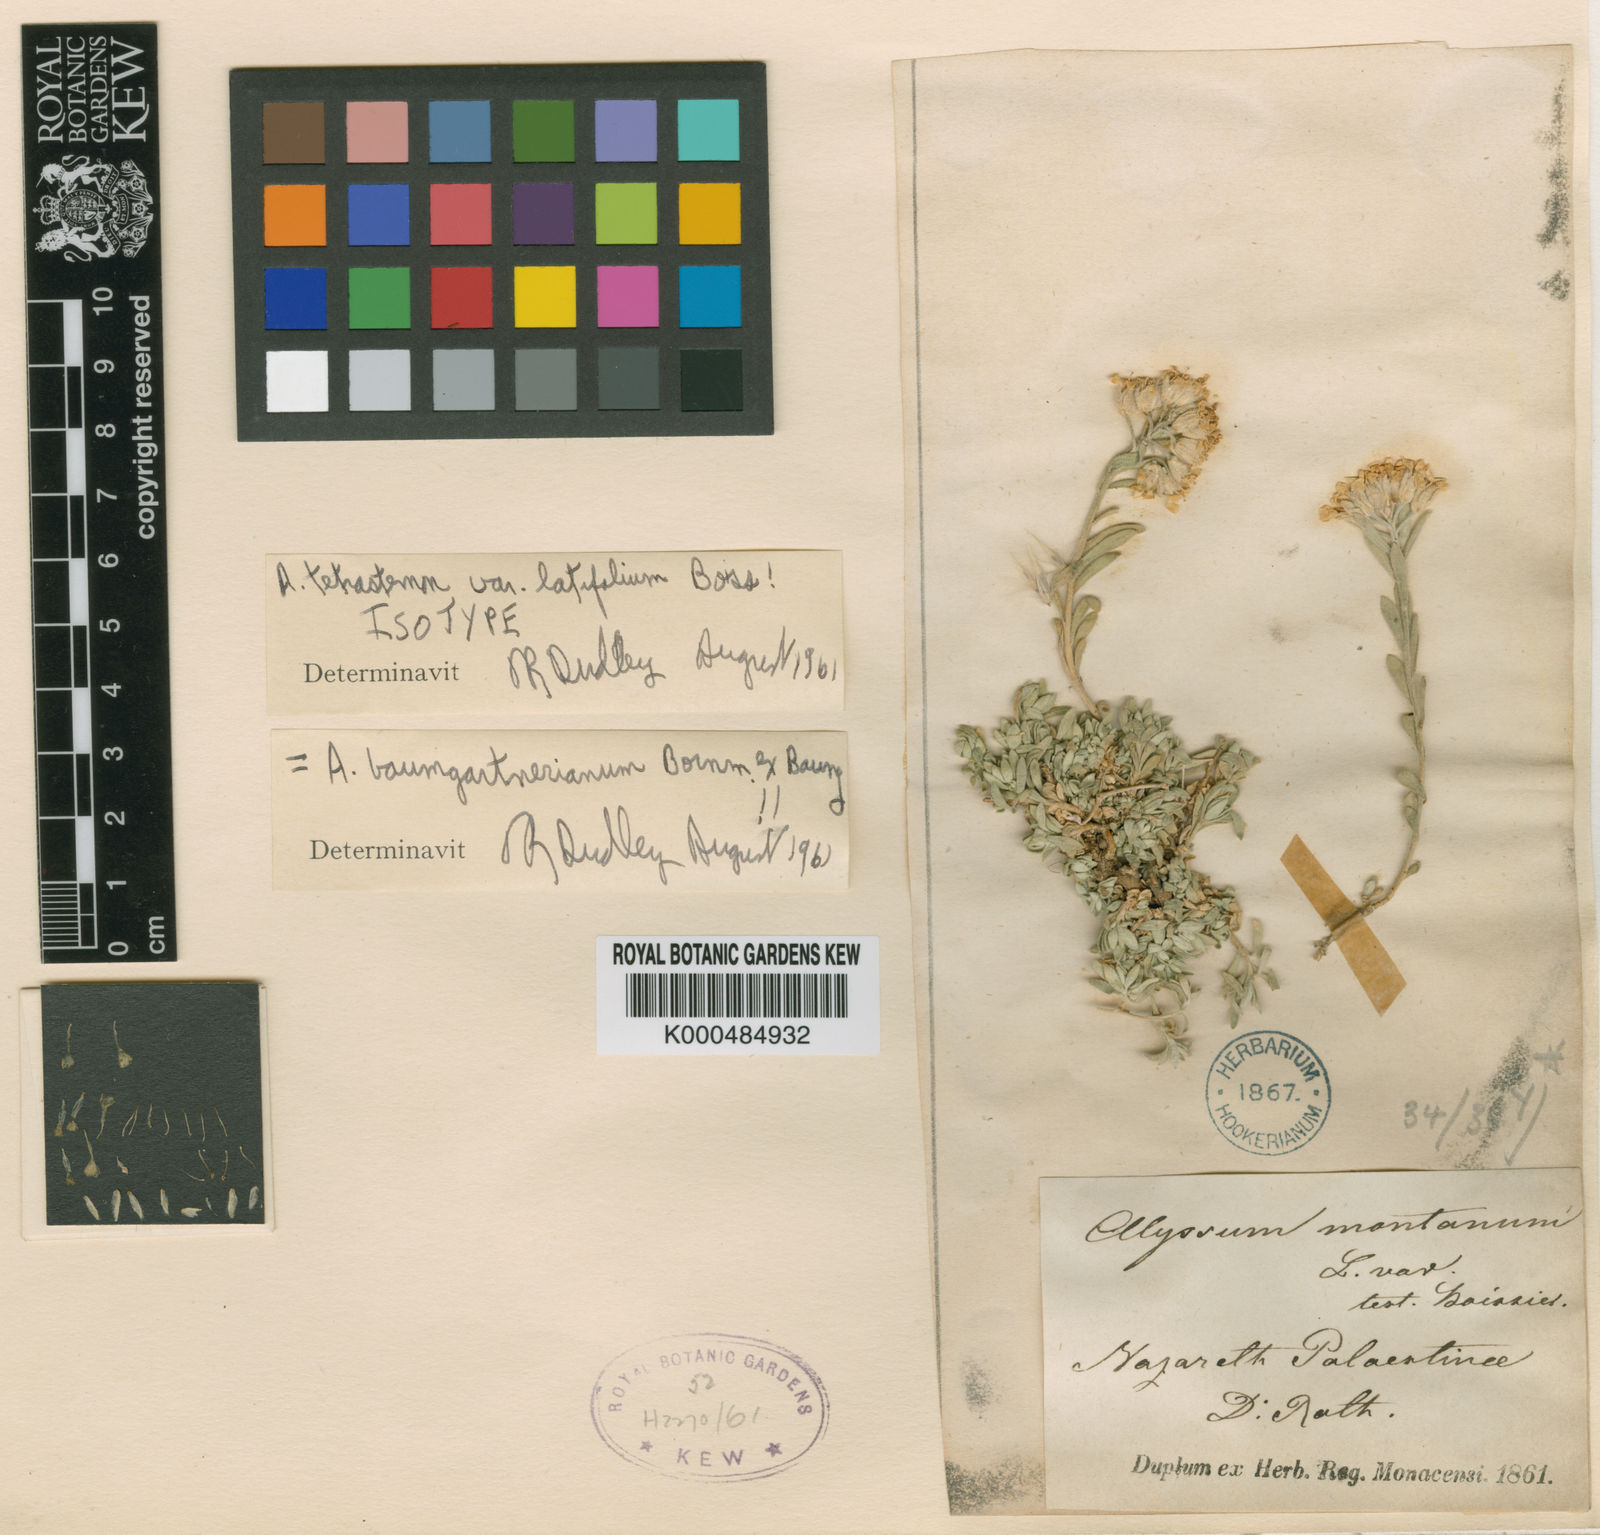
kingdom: Plantae
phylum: Tracheophyta
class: Magnoliopsida
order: Brassicales
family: Brassicaceae
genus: Alyssum
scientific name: Alyssum baumgartnerianum
